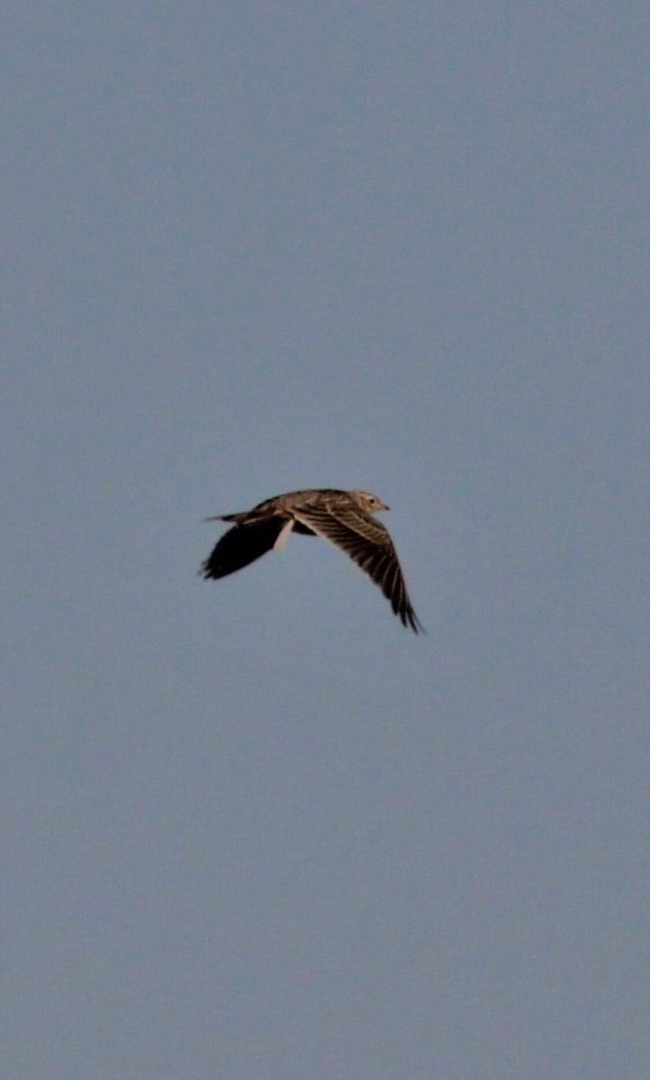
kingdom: Animalia
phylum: Chordata
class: Aves
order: Passeriformes
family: Alaudidae
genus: Alauda
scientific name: Alauda arvensis
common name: Sanglærke
